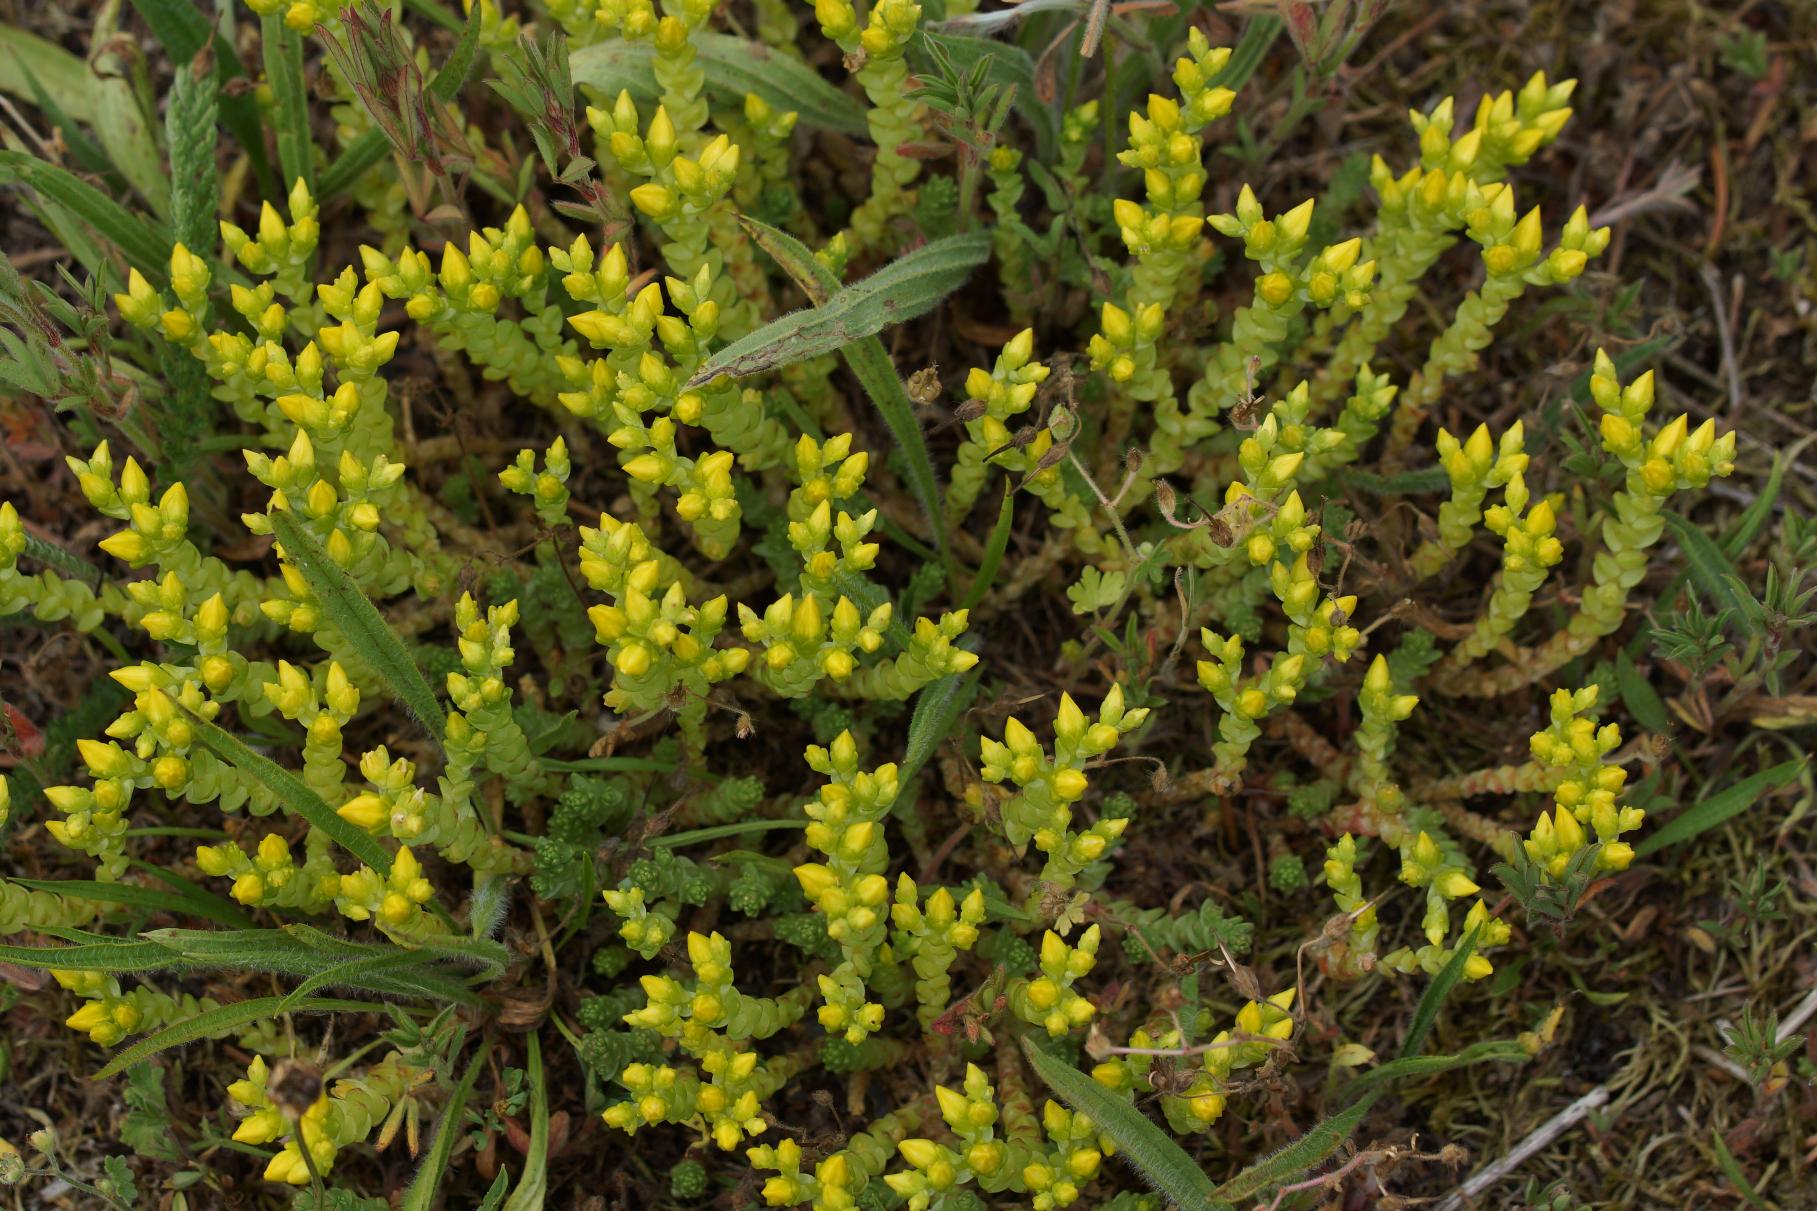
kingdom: Plantae
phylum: Tracheophyta
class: Magnoliopsida
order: Saxifragales
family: Crassulaceae
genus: Sedum
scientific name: Sedum acre
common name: Bidende stenurt
